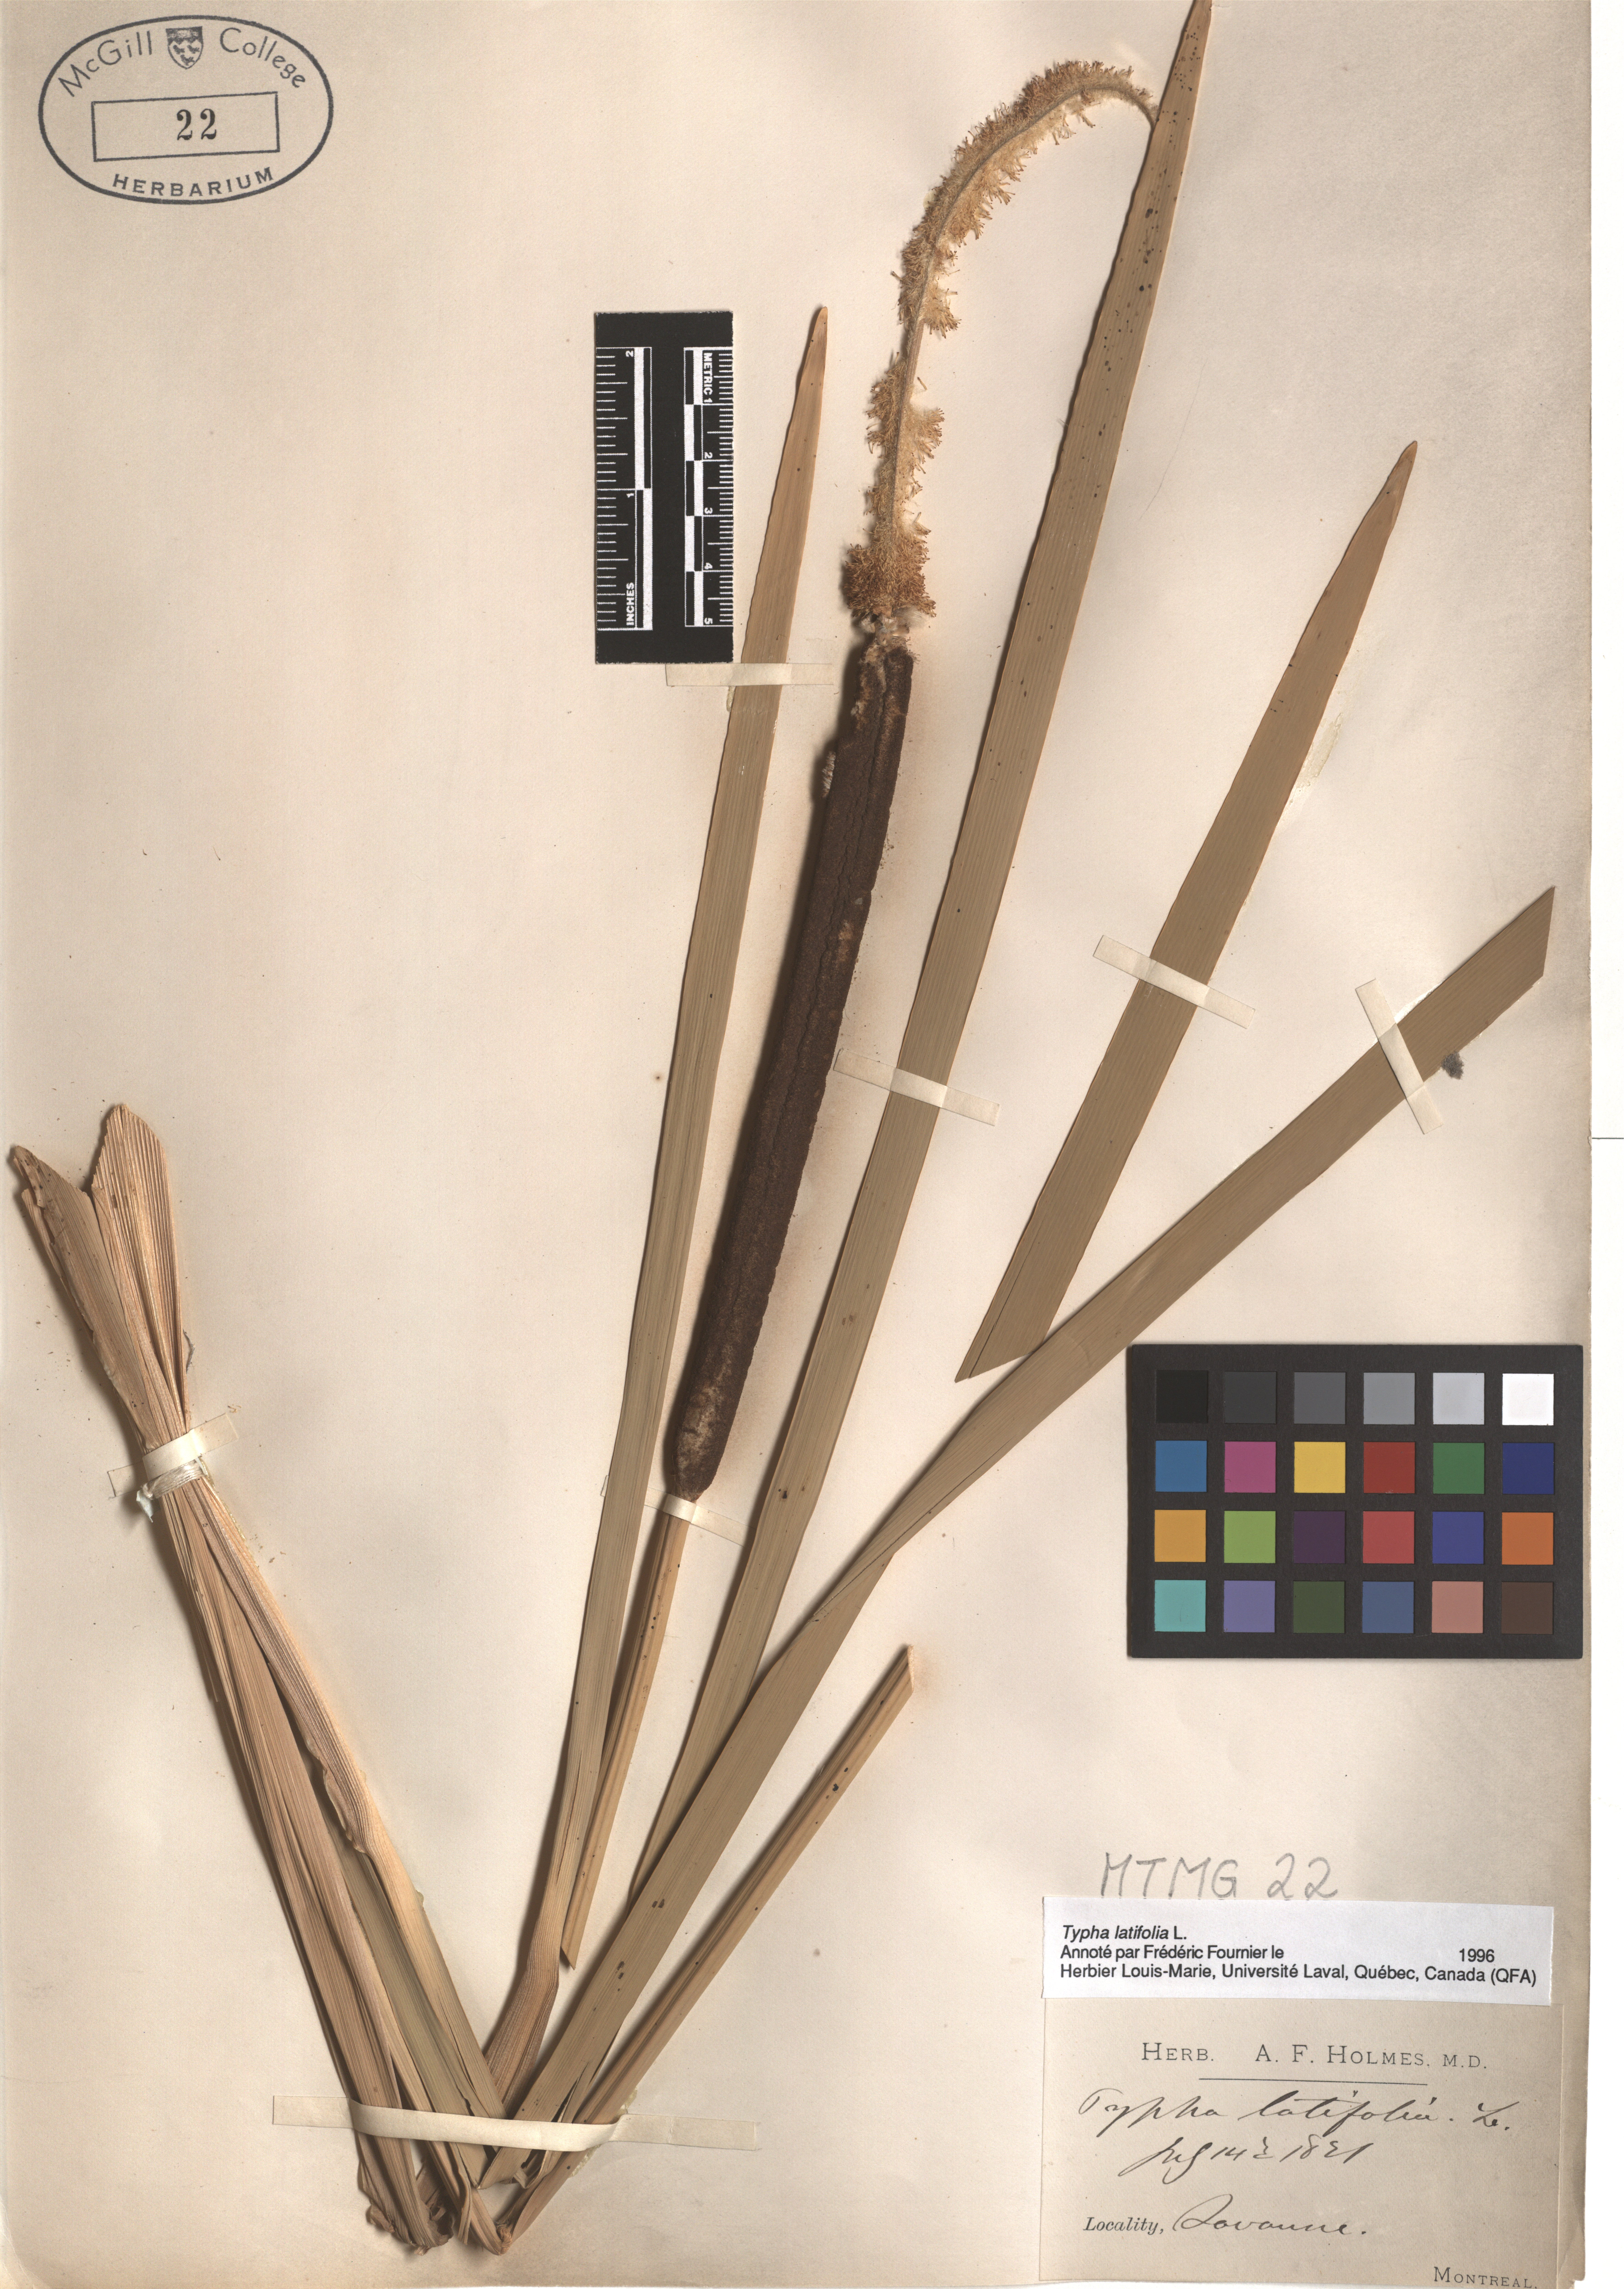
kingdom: Plantae
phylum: Tracheophyta
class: Liliopsida
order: Poales
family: Typhaceae
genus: Typha
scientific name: Typha latifolia
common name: Broadleaf cattail
